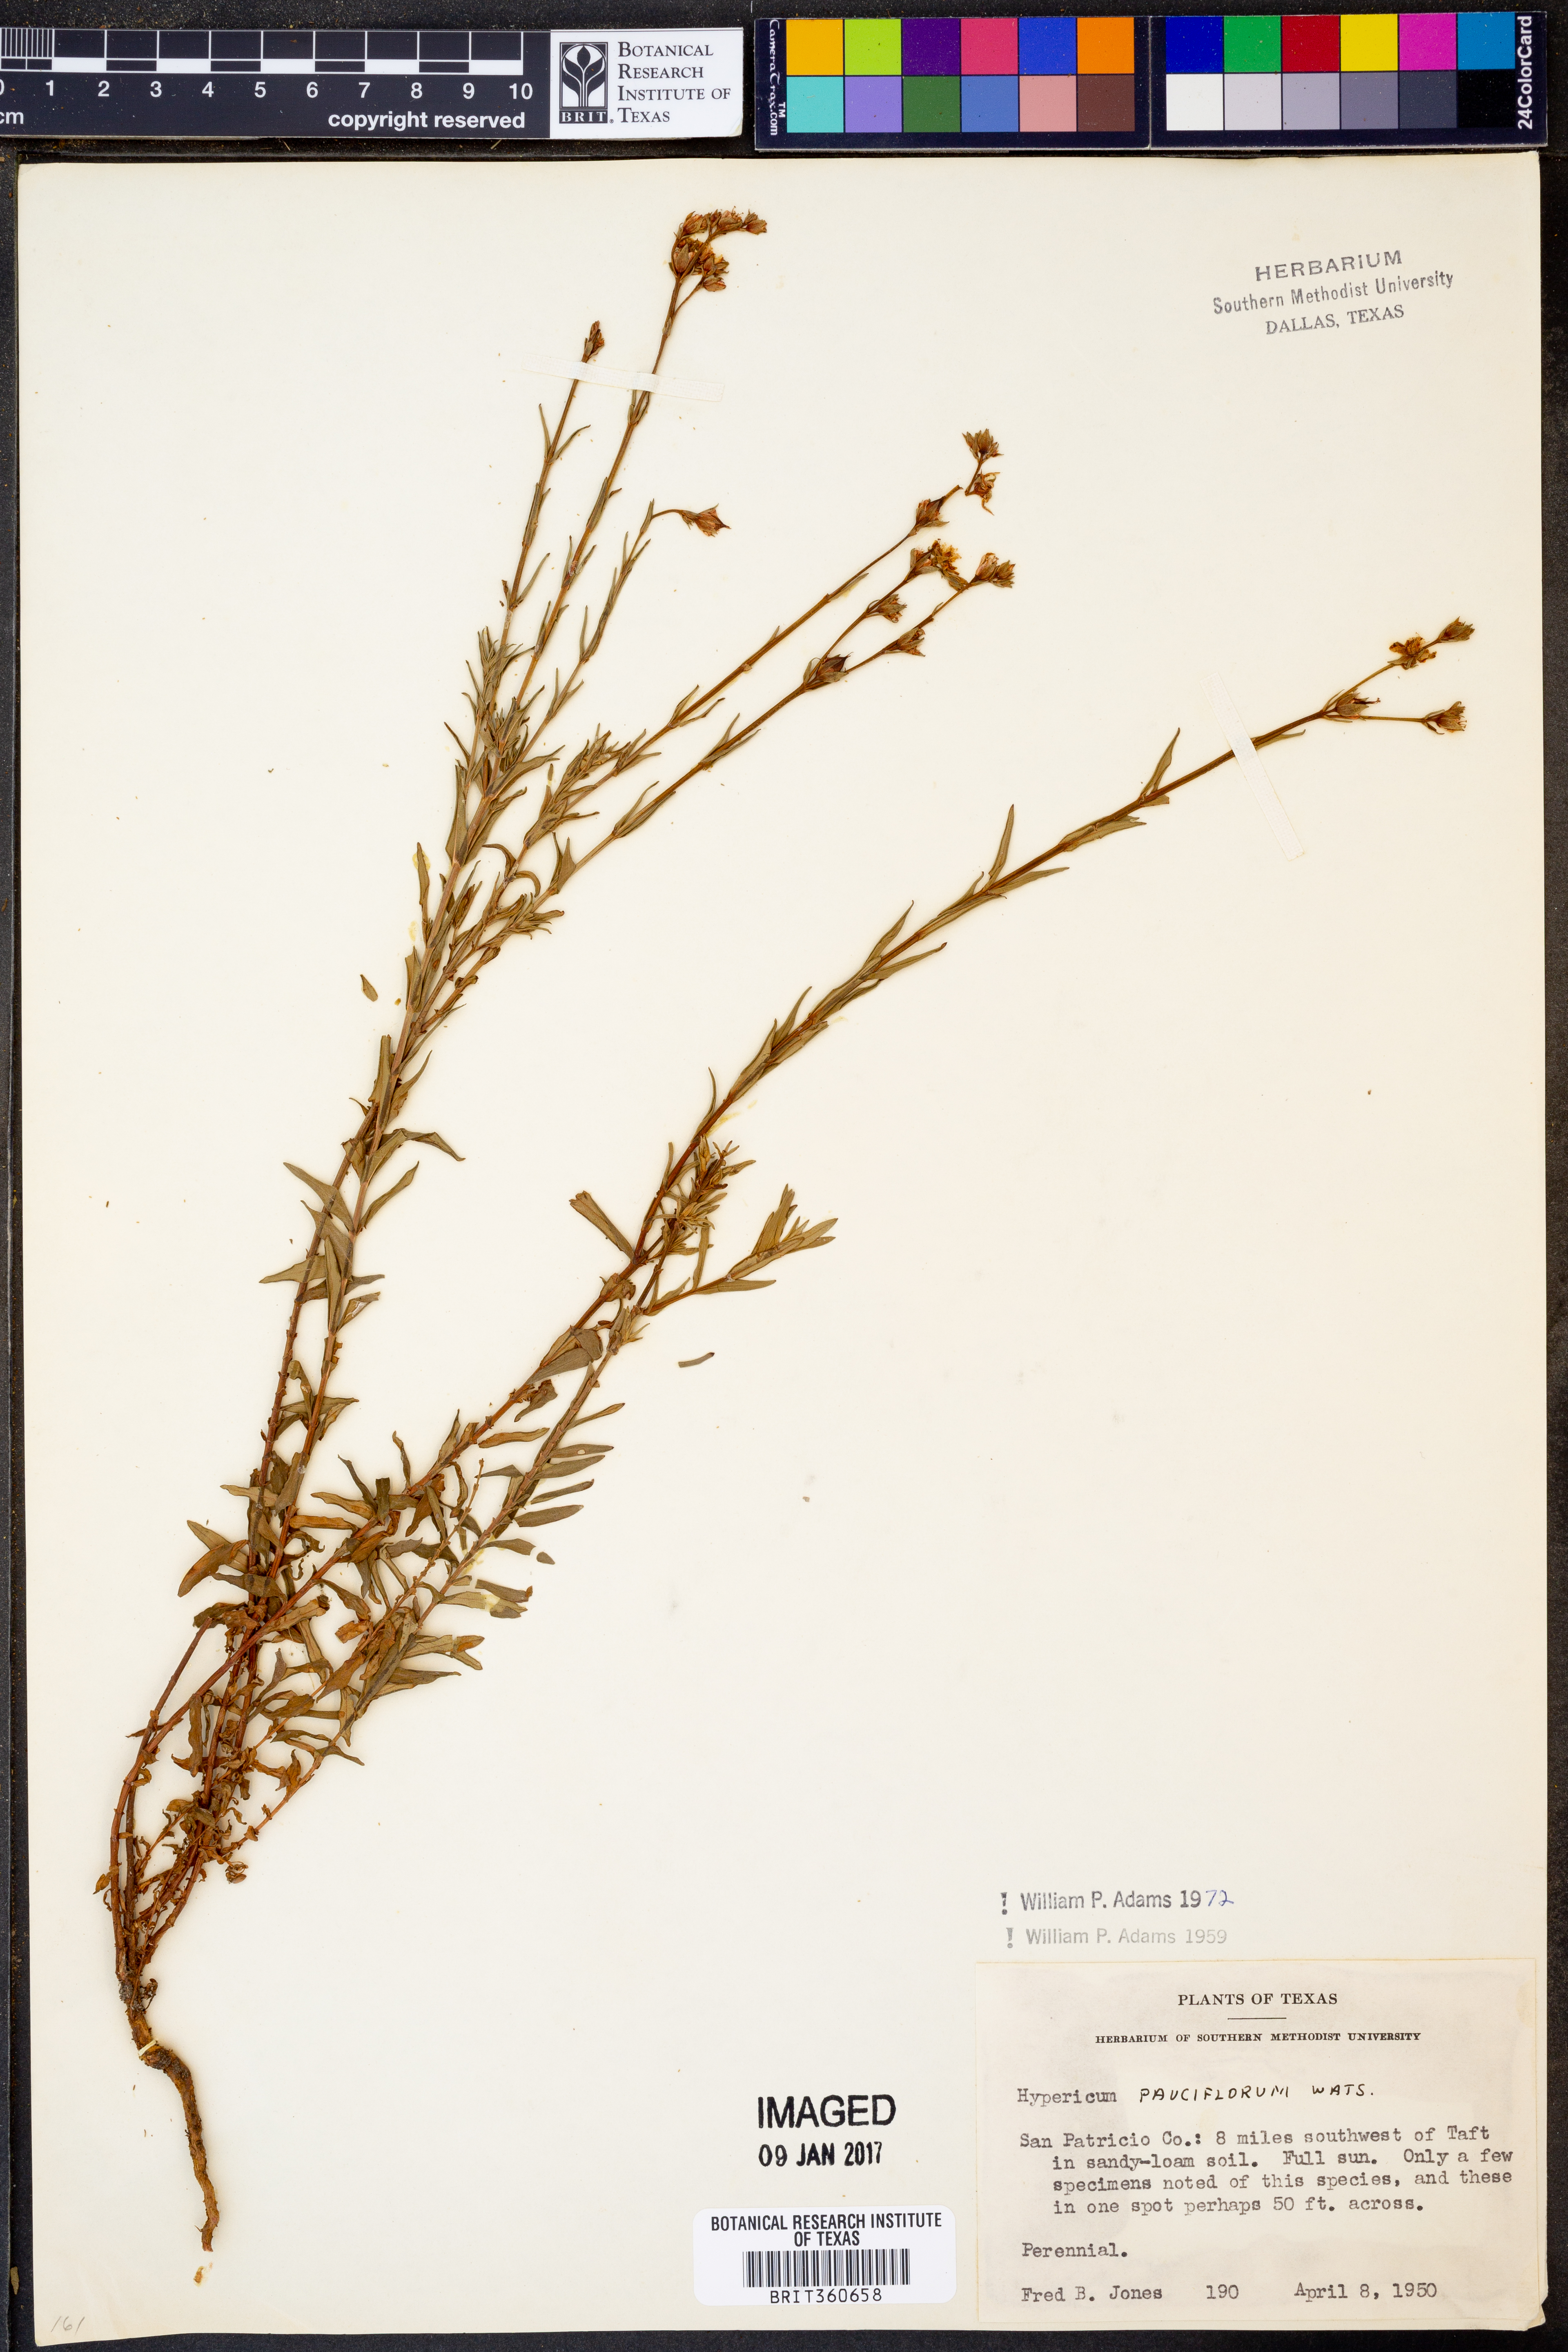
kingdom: Plantae
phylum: Tracheophyta
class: Magnoliopsida
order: Malpighiales
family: Hypericaceae
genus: Hypericum
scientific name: Hypericum pauciflorum
